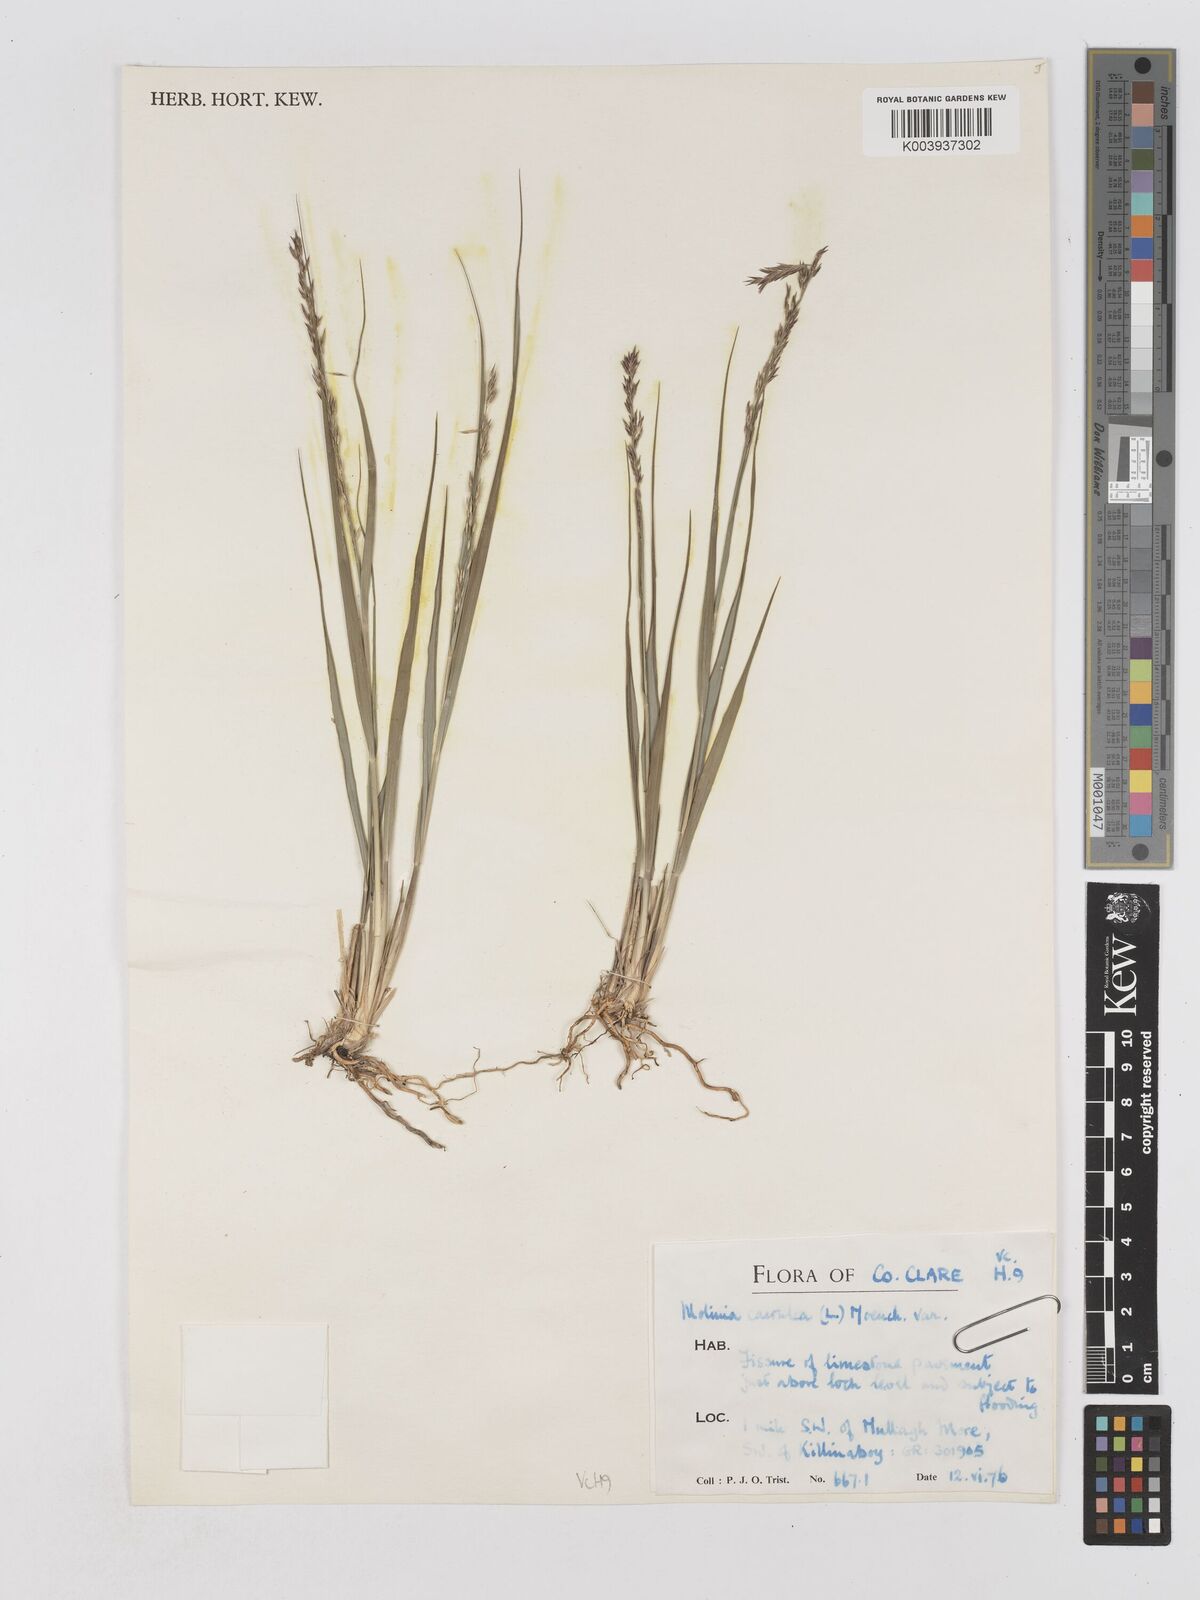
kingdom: Plantae
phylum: Tracheophyta
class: Liliopsida
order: Poales
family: Poaceae
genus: Molinia
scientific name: Molinia caerulea
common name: Purple moor-grass
